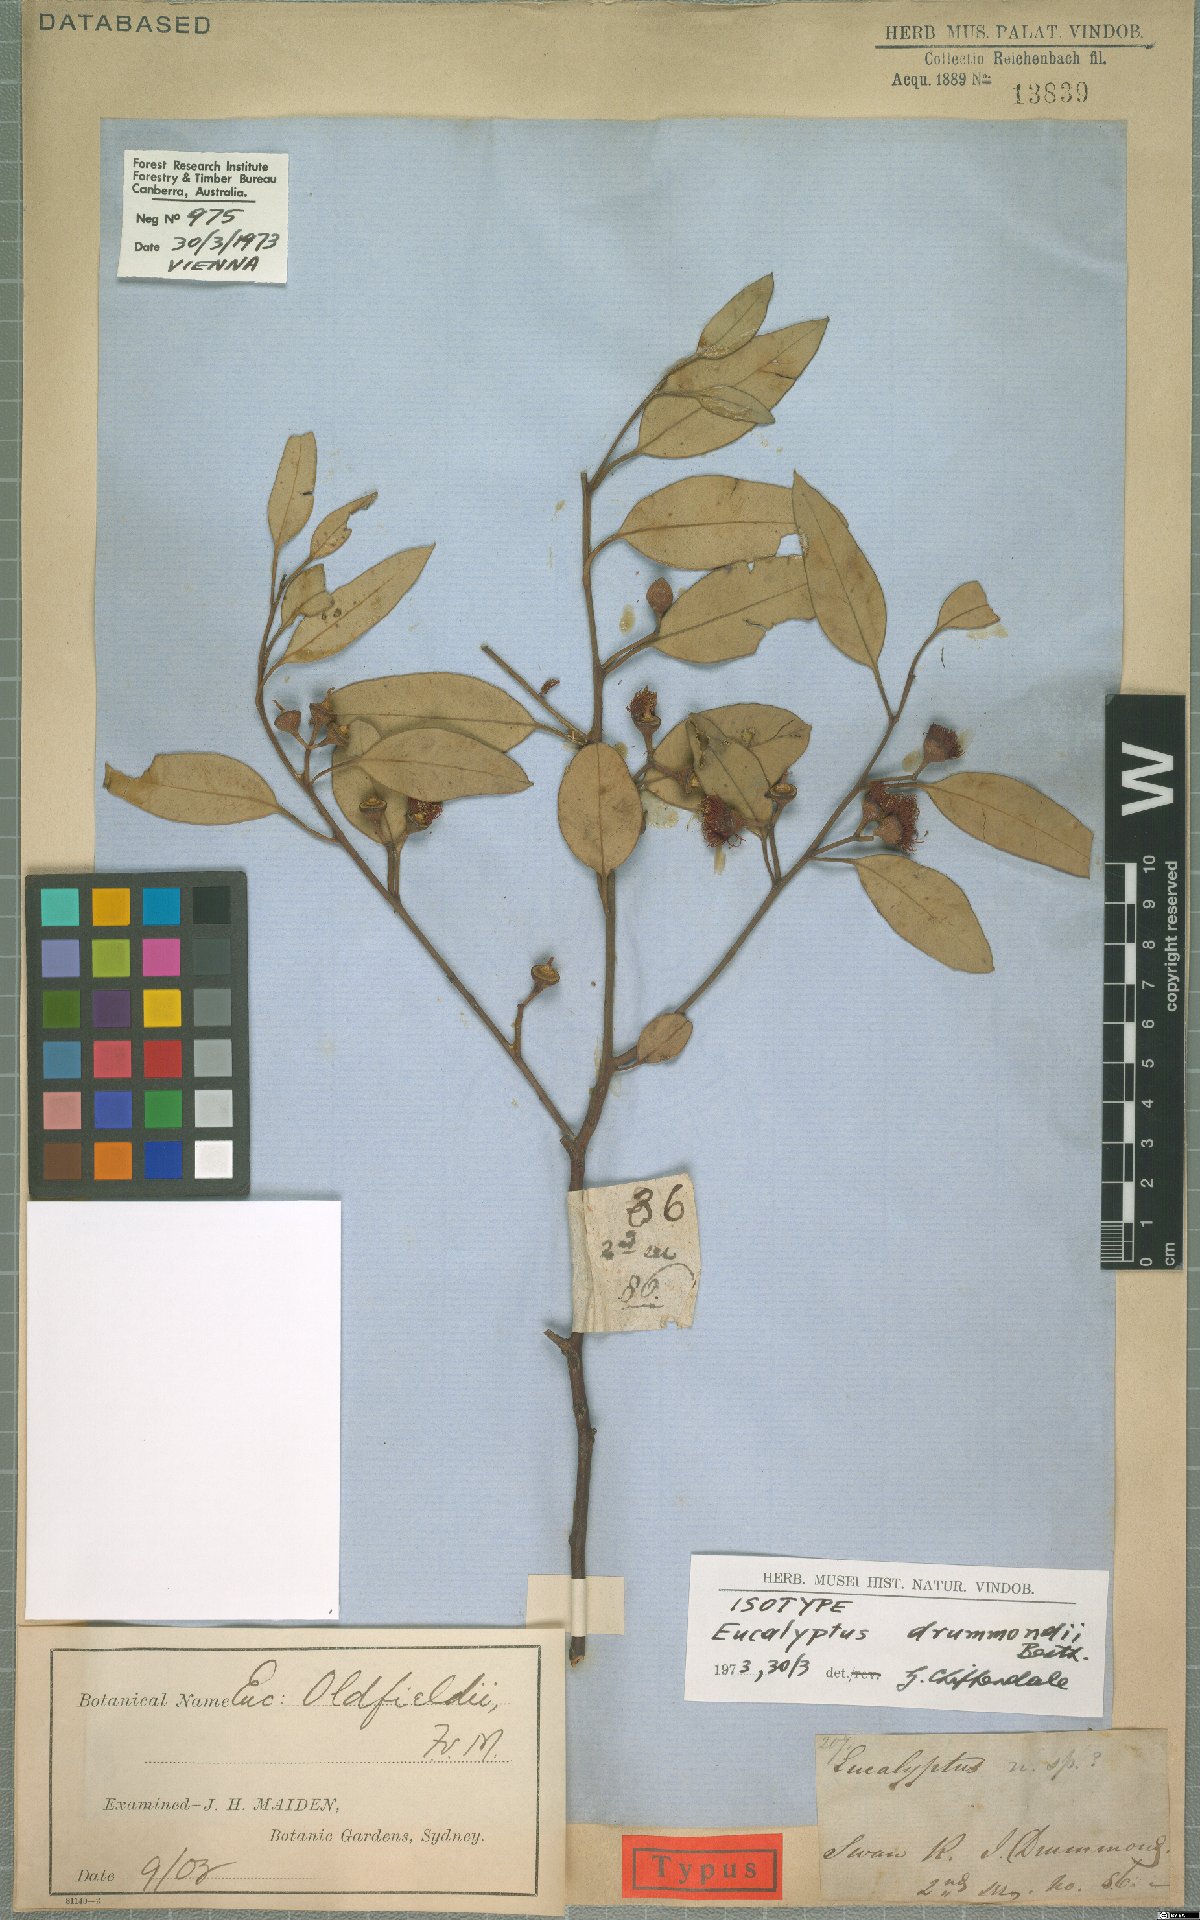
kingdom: Plantae
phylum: Tracheophyta
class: Magnoliopsida
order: Myrtales
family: Myrtaceae
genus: Eucalyptus
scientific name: Eucalyptus drummondii
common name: Drummond's mallee
